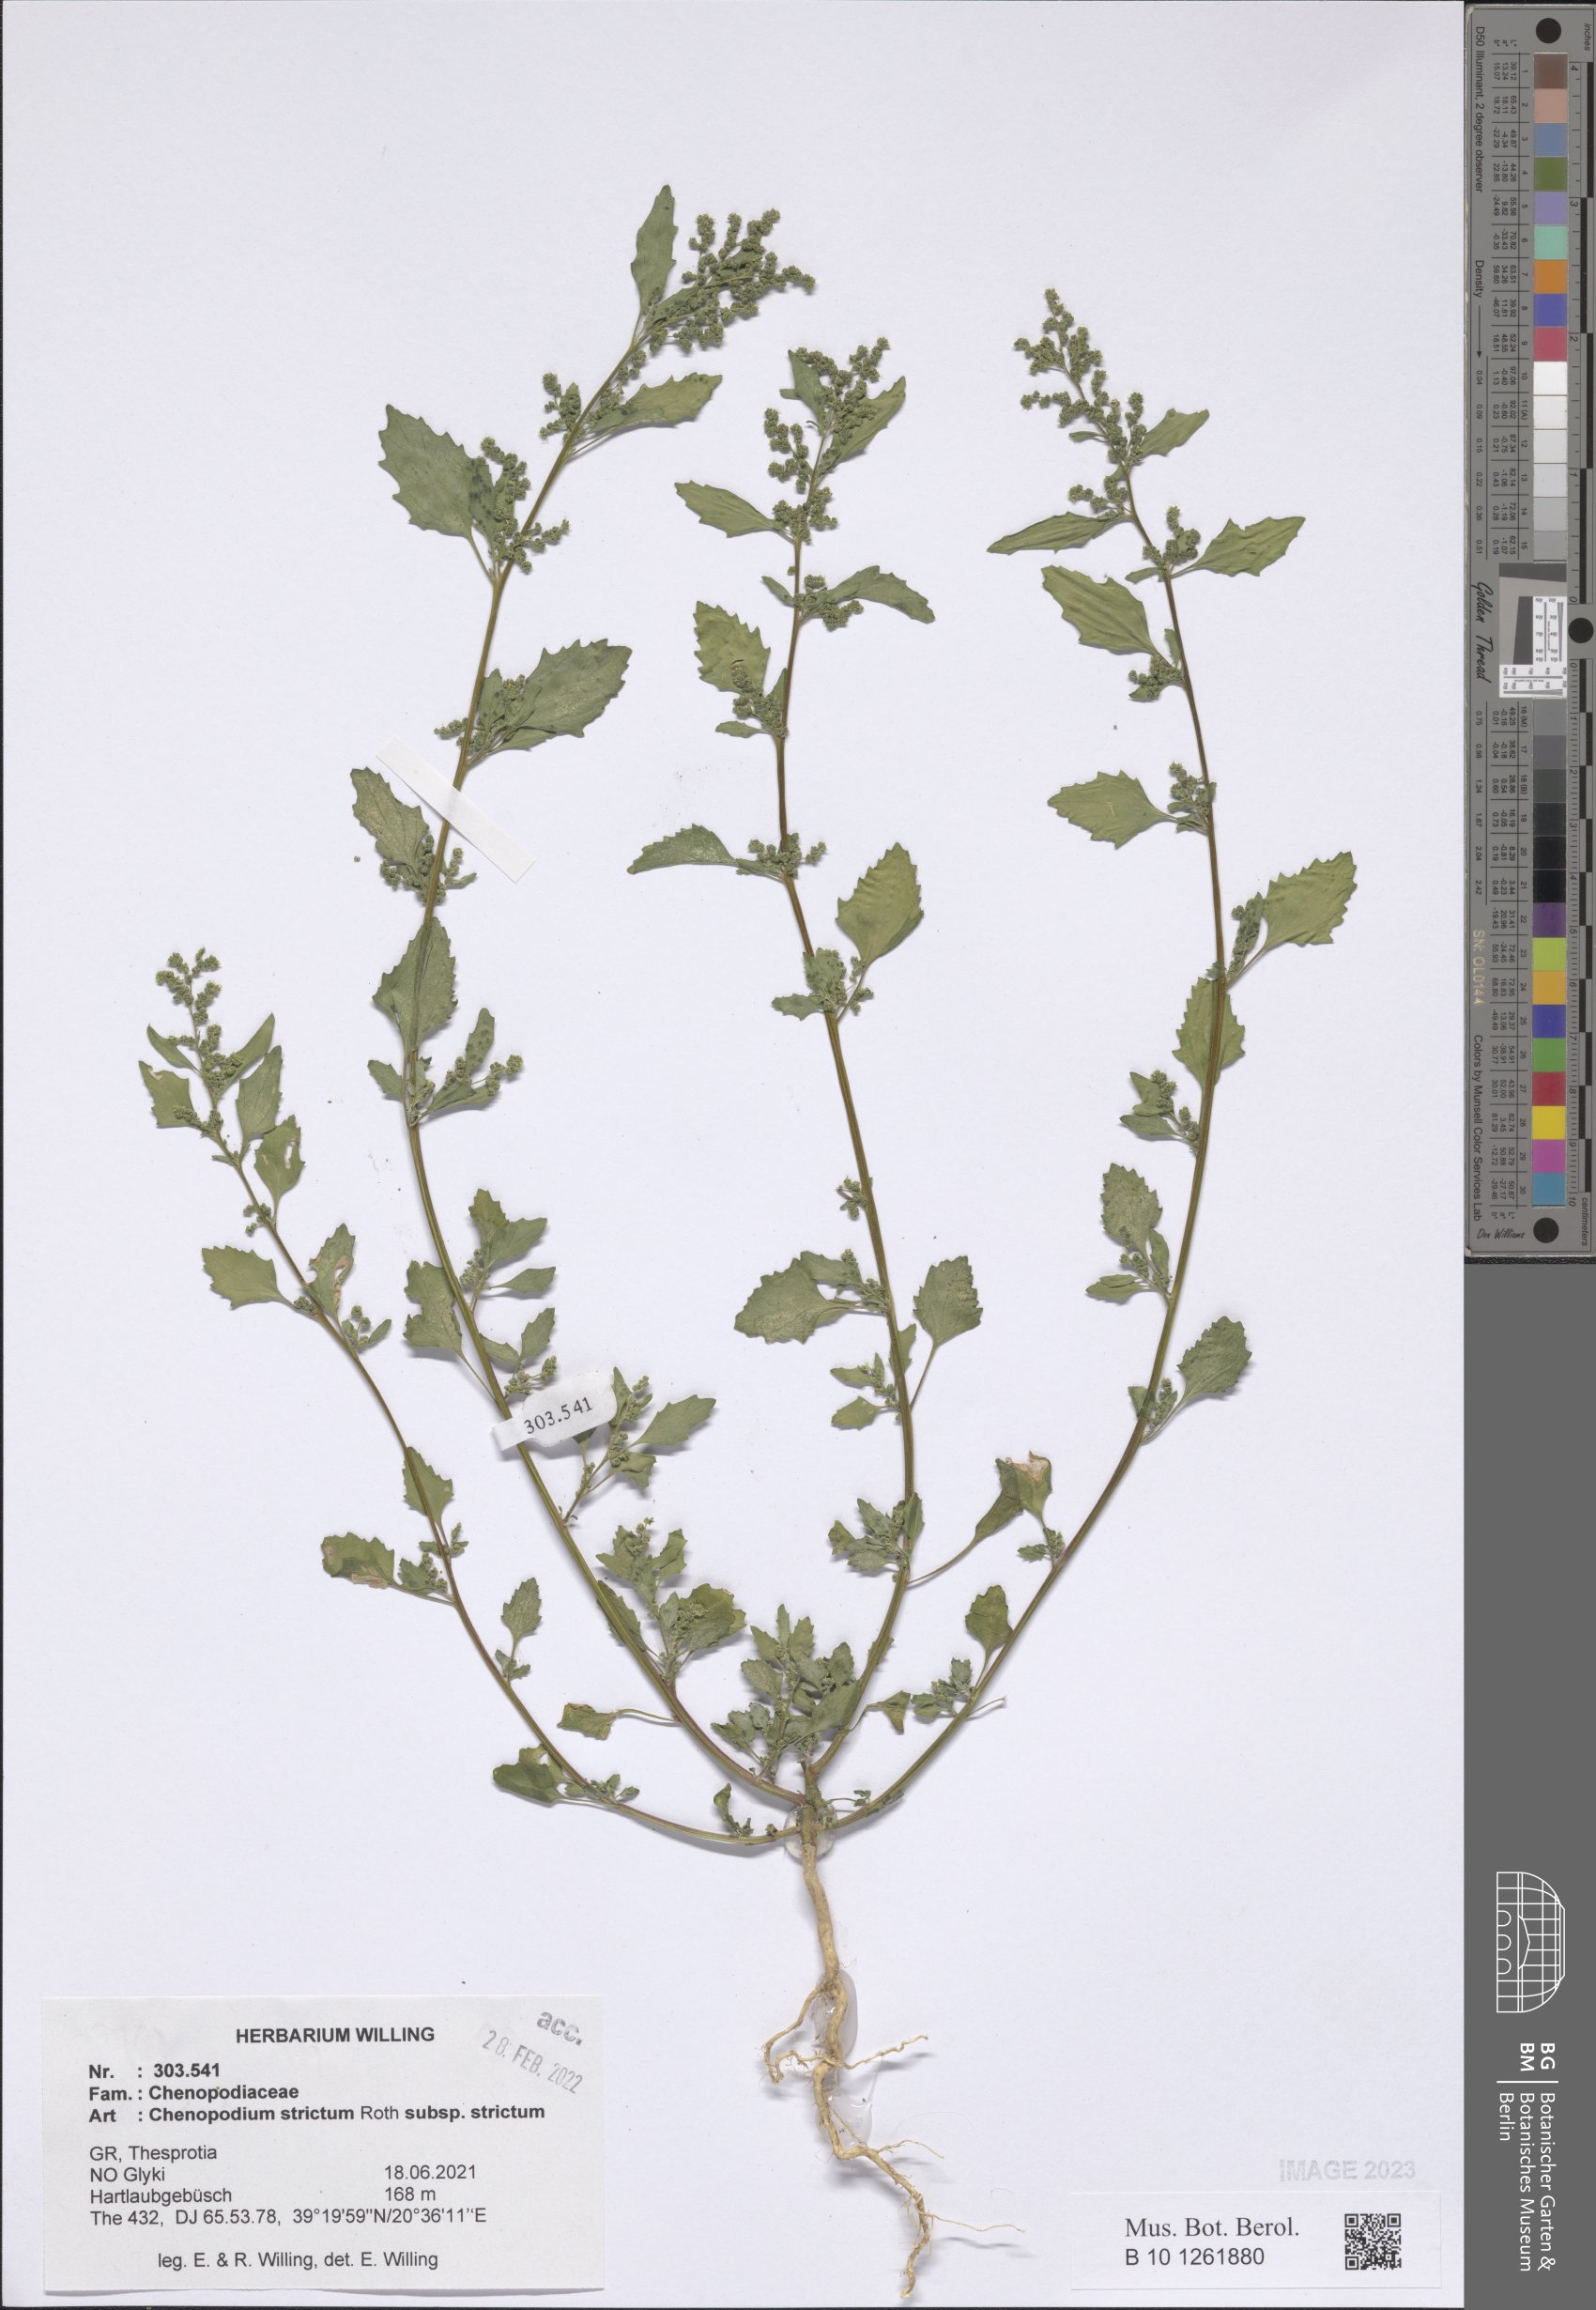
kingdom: Plantae
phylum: Tracheophyta
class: Magnoliopsida
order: Caryophyllales
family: Amaranthaceae
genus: Chenopodium
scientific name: Chenopodium album
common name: Fat-hen
